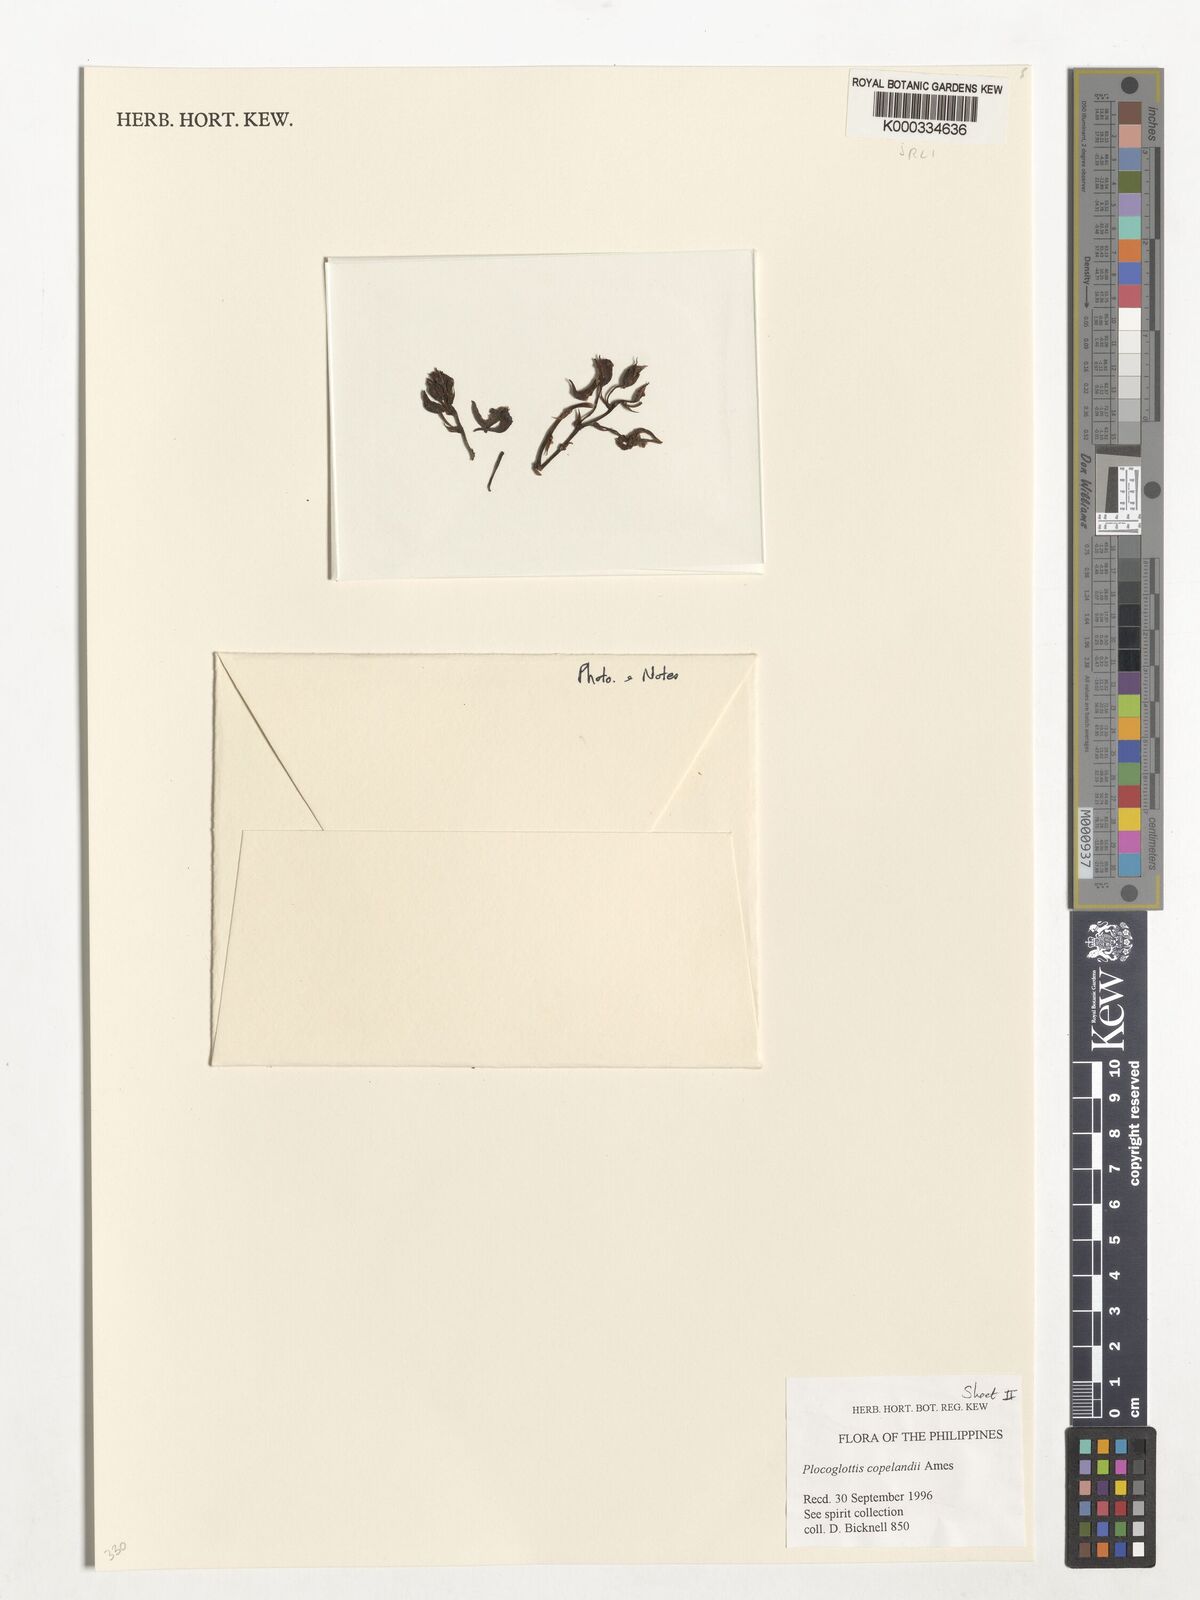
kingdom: Plantae
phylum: Tracheophyta
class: Liliopsida
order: Asparagales
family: Orchidaceae
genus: Plocoglottis
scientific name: Plocoglottis copelandii
